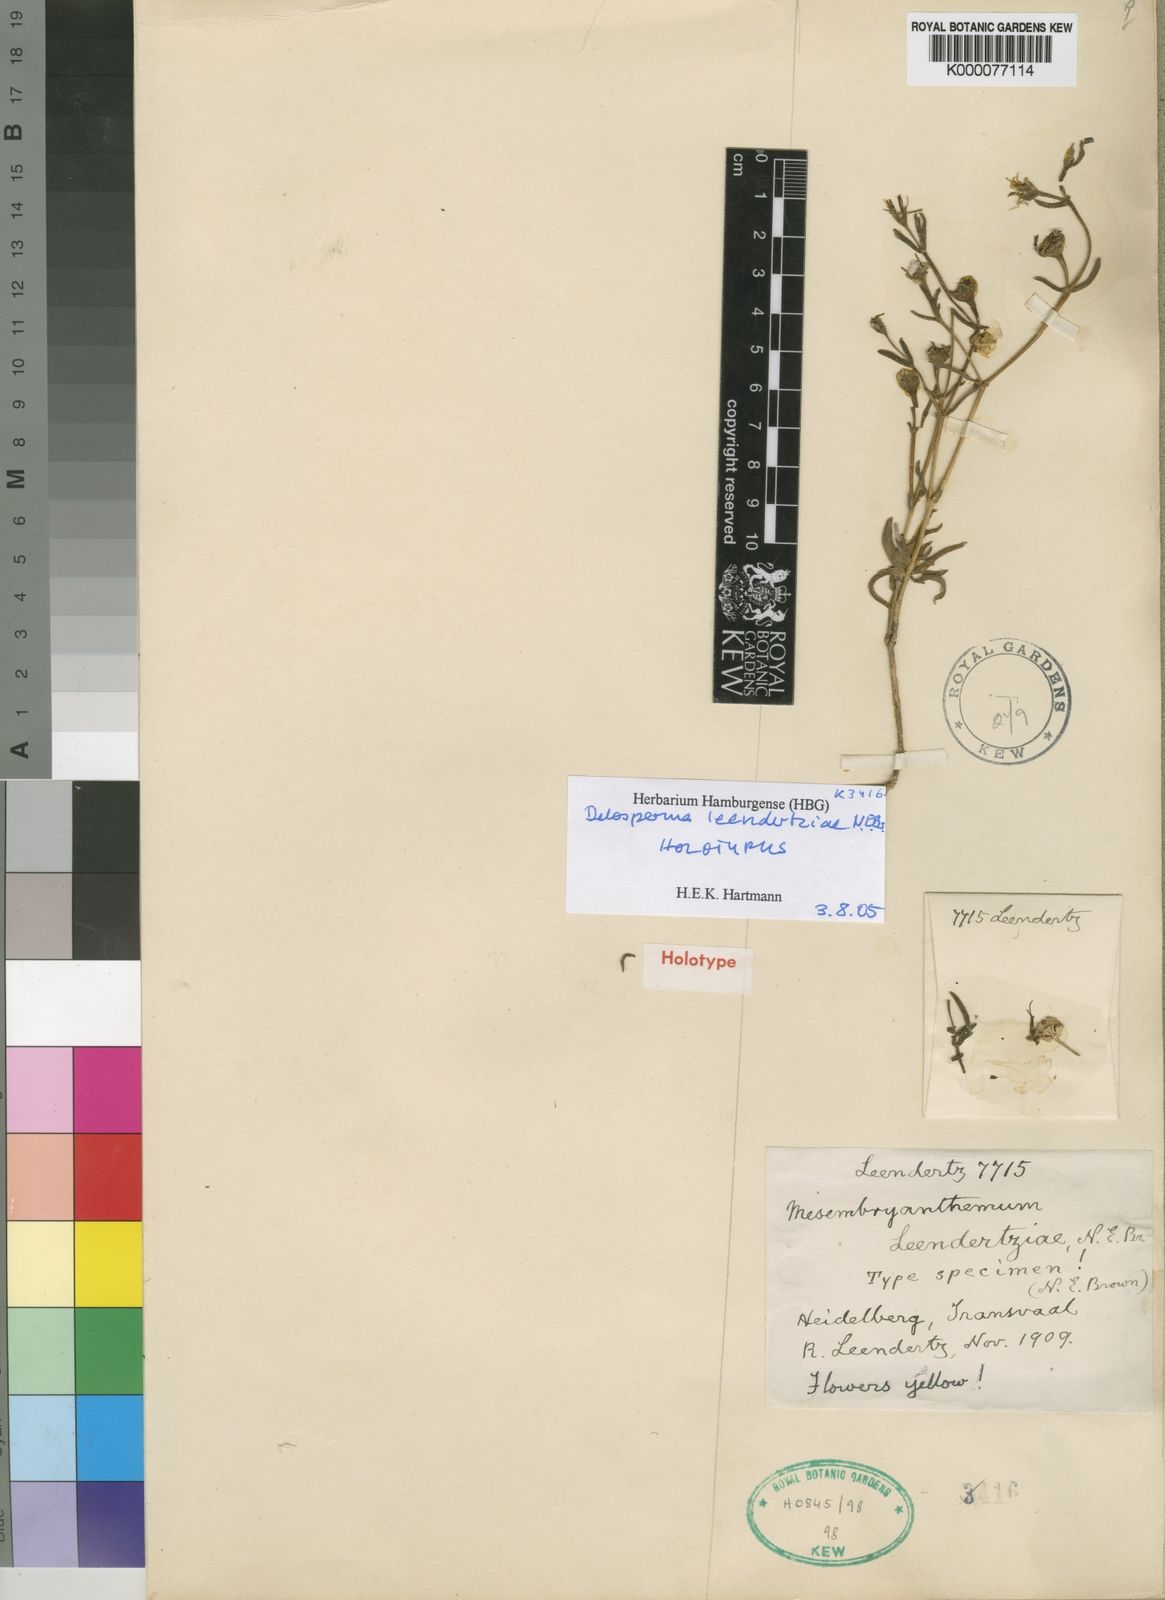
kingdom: Plantae
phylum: Tracheophyta
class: Magnoliopsida
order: Caryophyllales
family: Aizoaceae
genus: Delosperma
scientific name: Delosperma leendertziae
